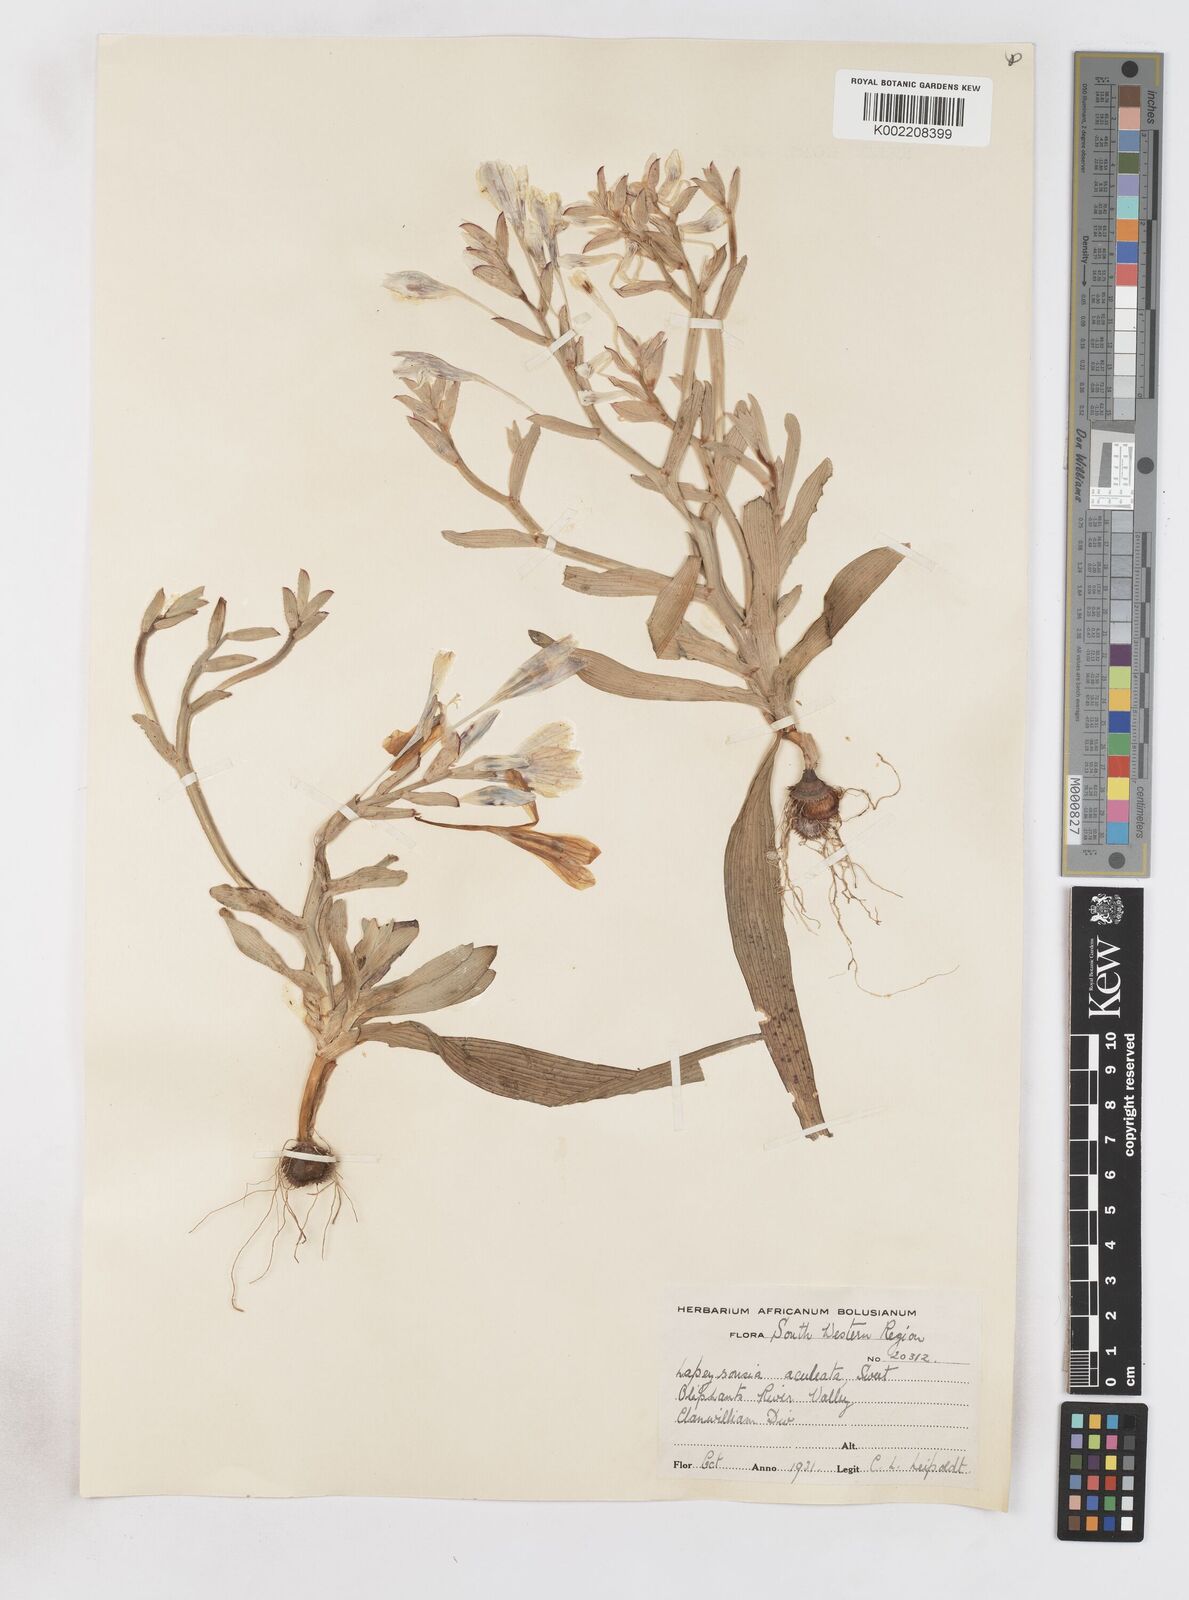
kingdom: Plantae
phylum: Tracheophyta
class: Liliopsida
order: Asparagales
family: Iridaceae
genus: Lapeirousia
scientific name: Lapeirousia fabricii
